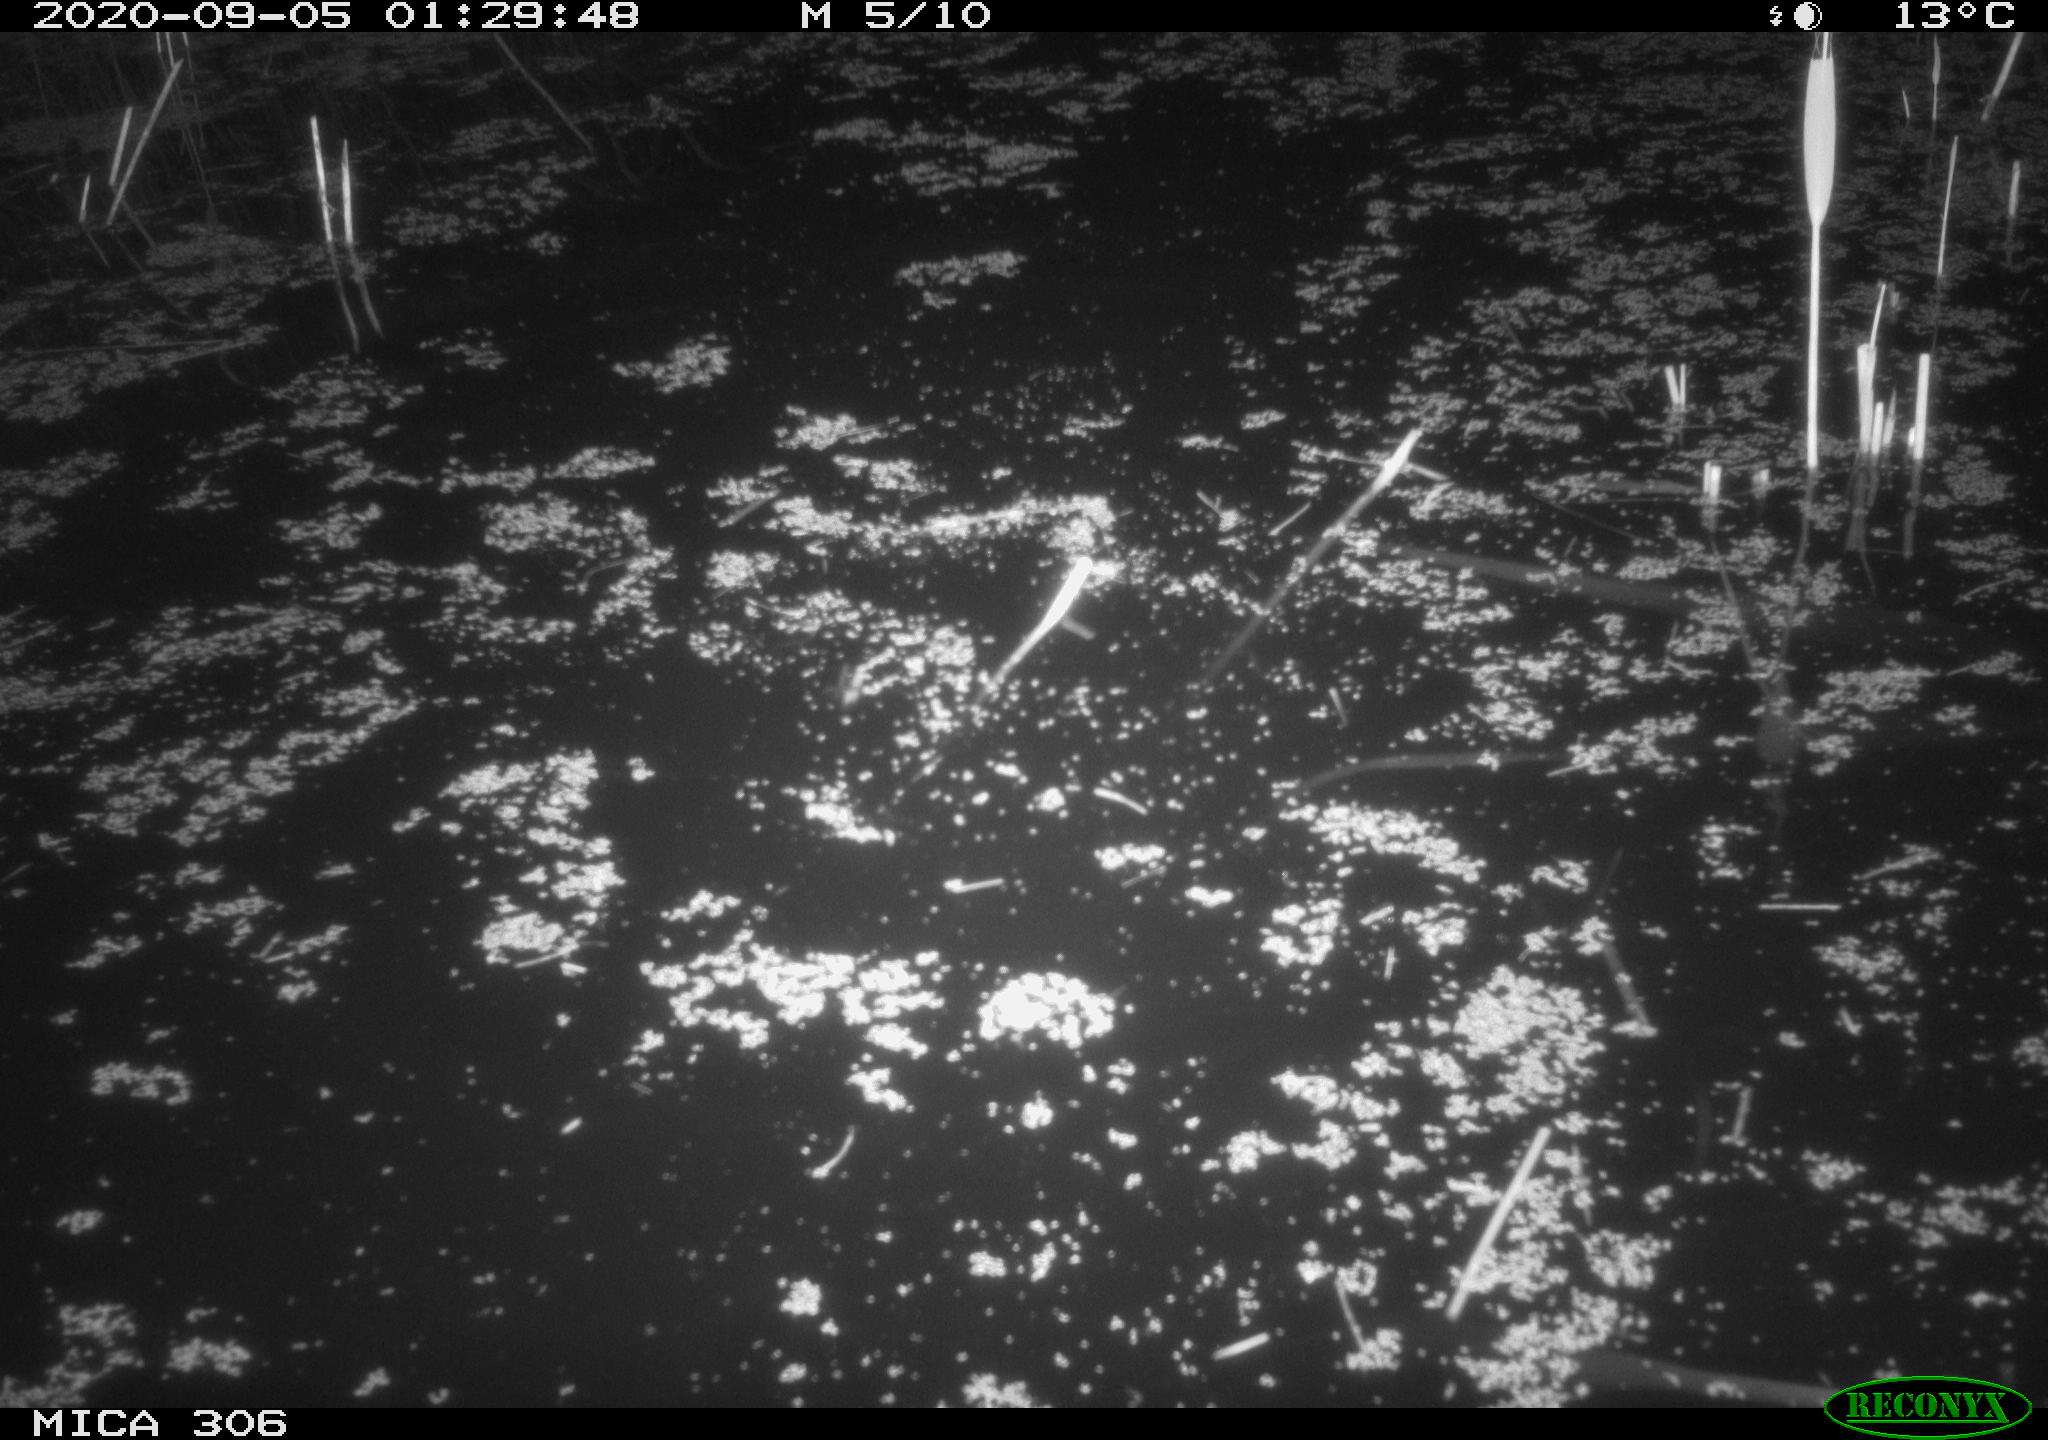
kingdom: Animalia
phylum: Chordata
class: Mammalia
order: Rodentia
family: Muridae
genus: Rattus
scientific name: Rattus norvegicus
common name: Brown rat
